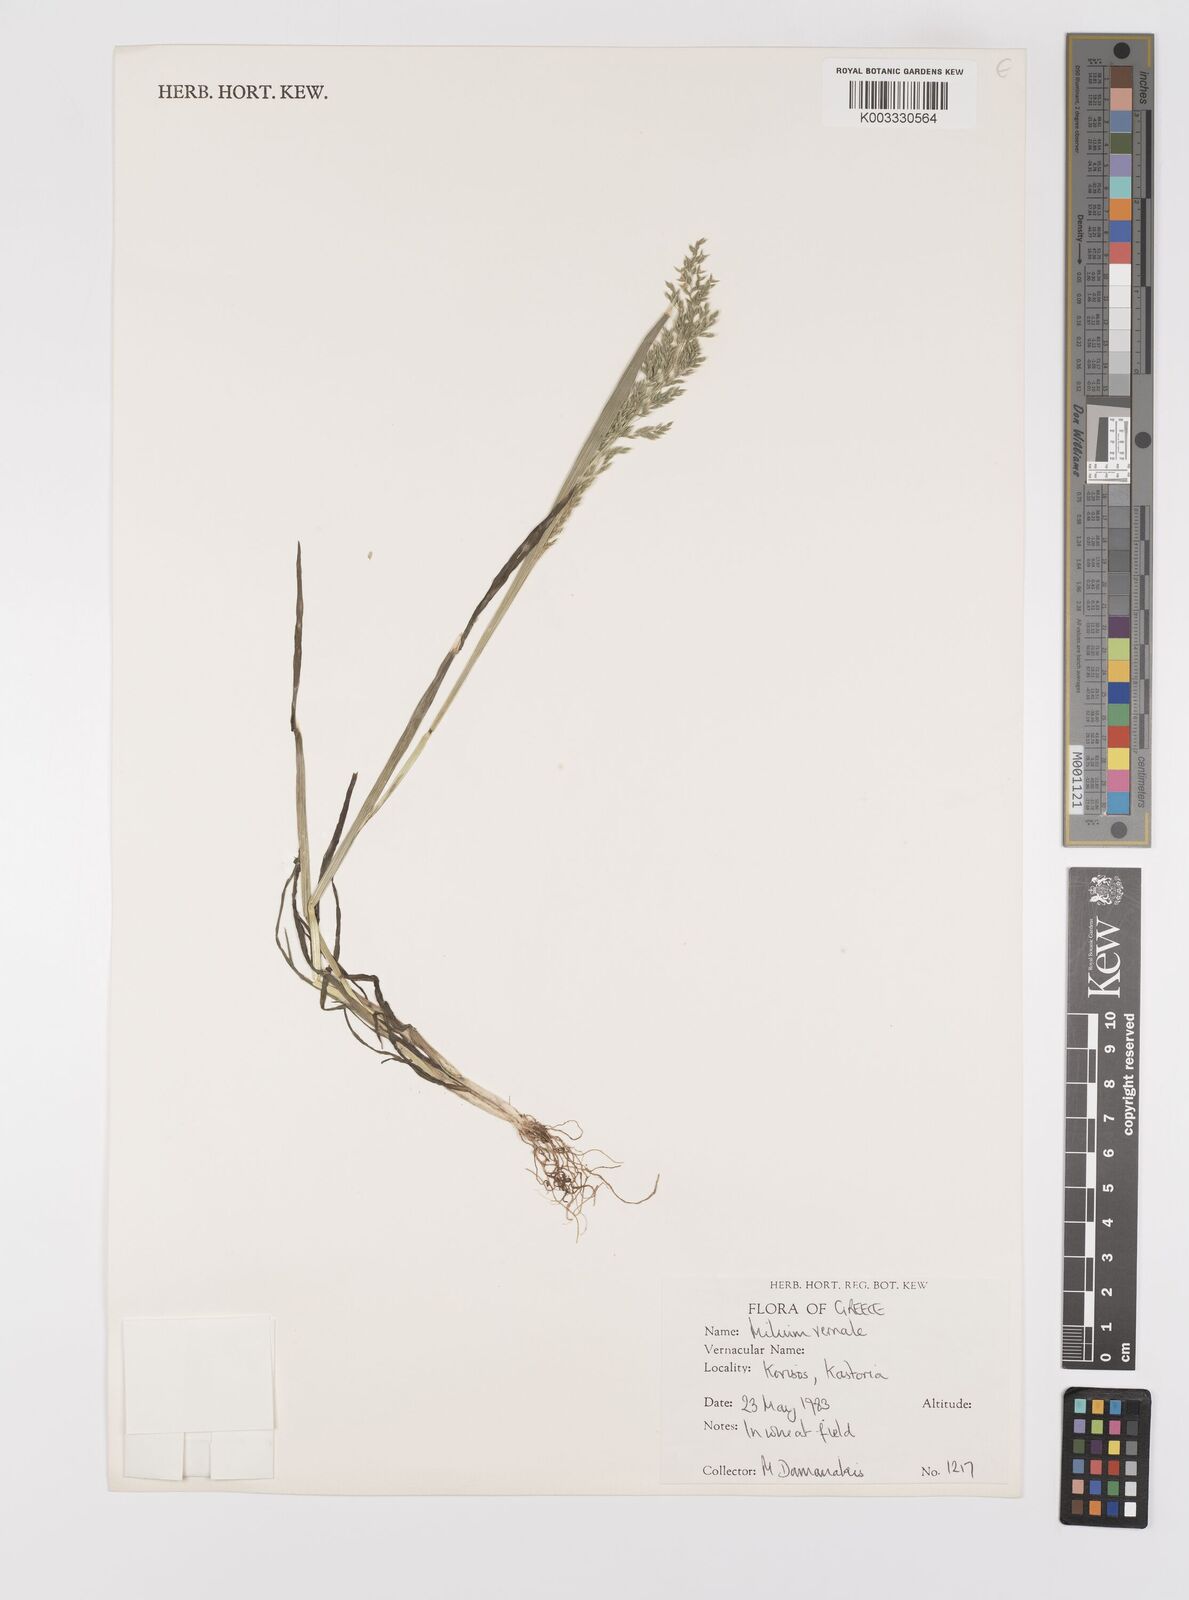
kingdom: Plantae
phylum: Tracheophyta
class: Liliopsida
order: Poales
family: Poaceae
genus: Milium
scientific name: Milium vernale
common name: Early millet
